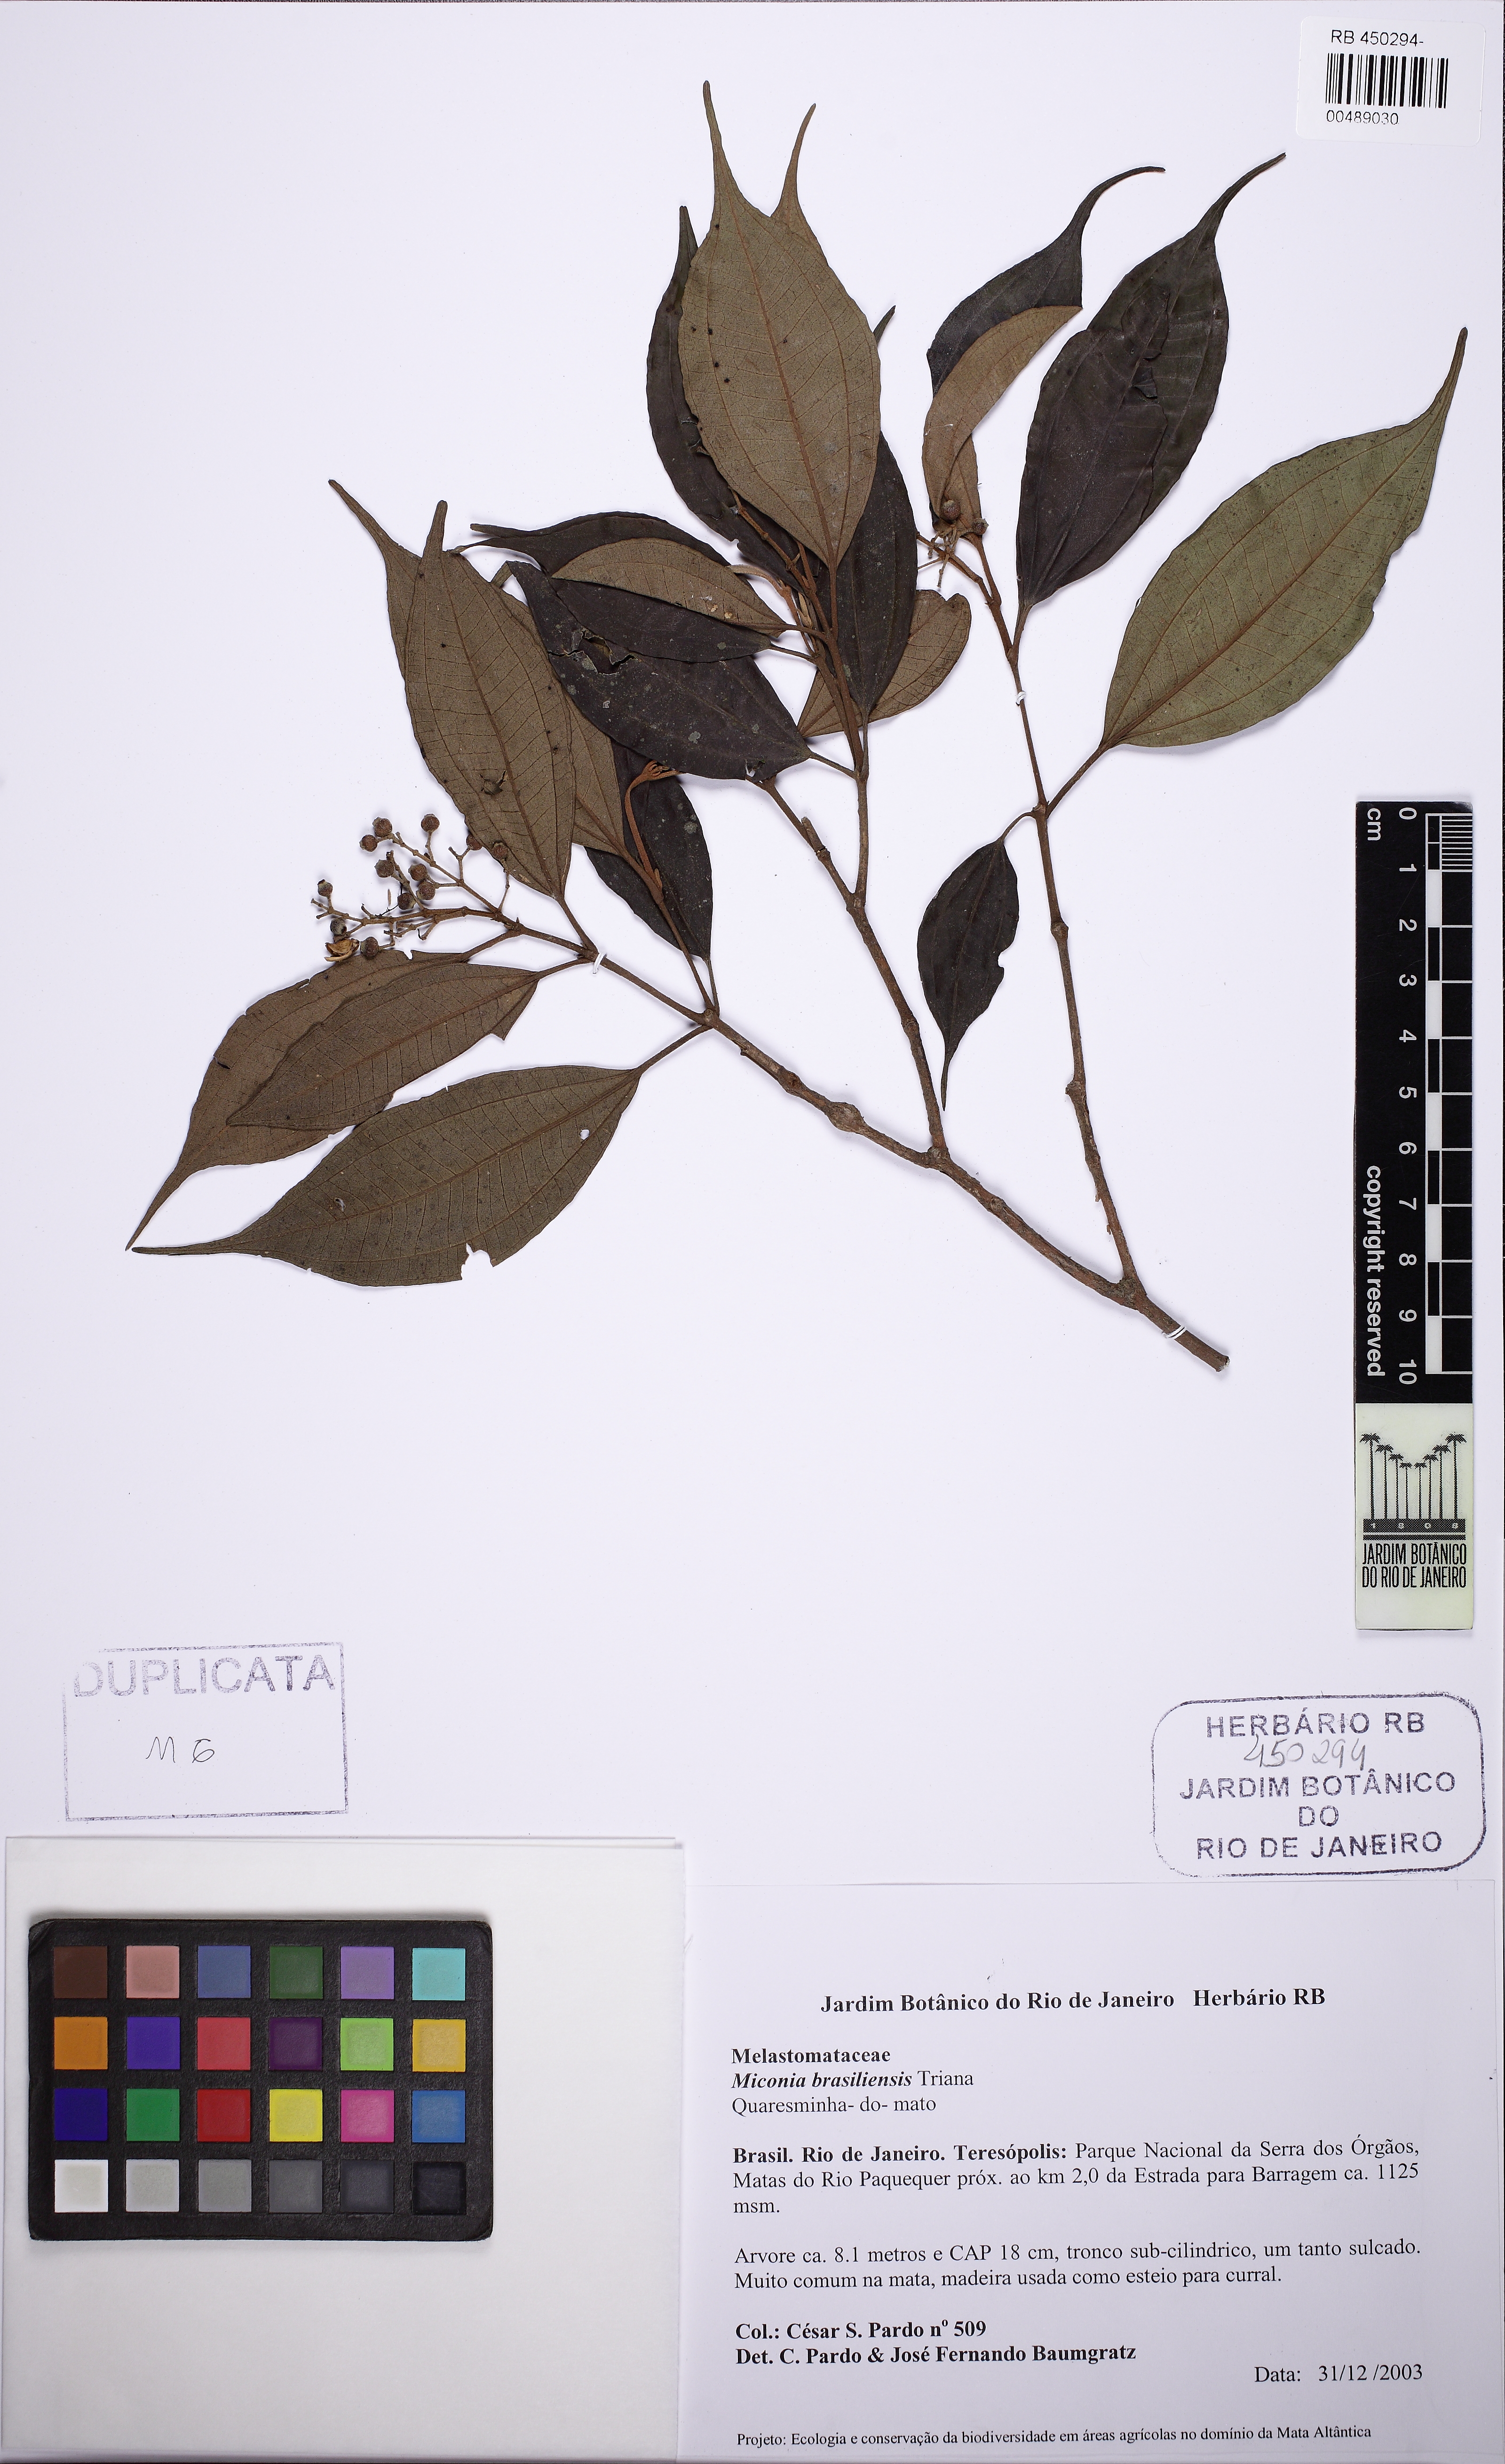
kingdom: Plantae
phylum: Tracheophyta
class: Magnoliopsida
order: Myrtales
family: Melastomataceae
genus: Miconia
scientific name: Miconia brasiliensis
